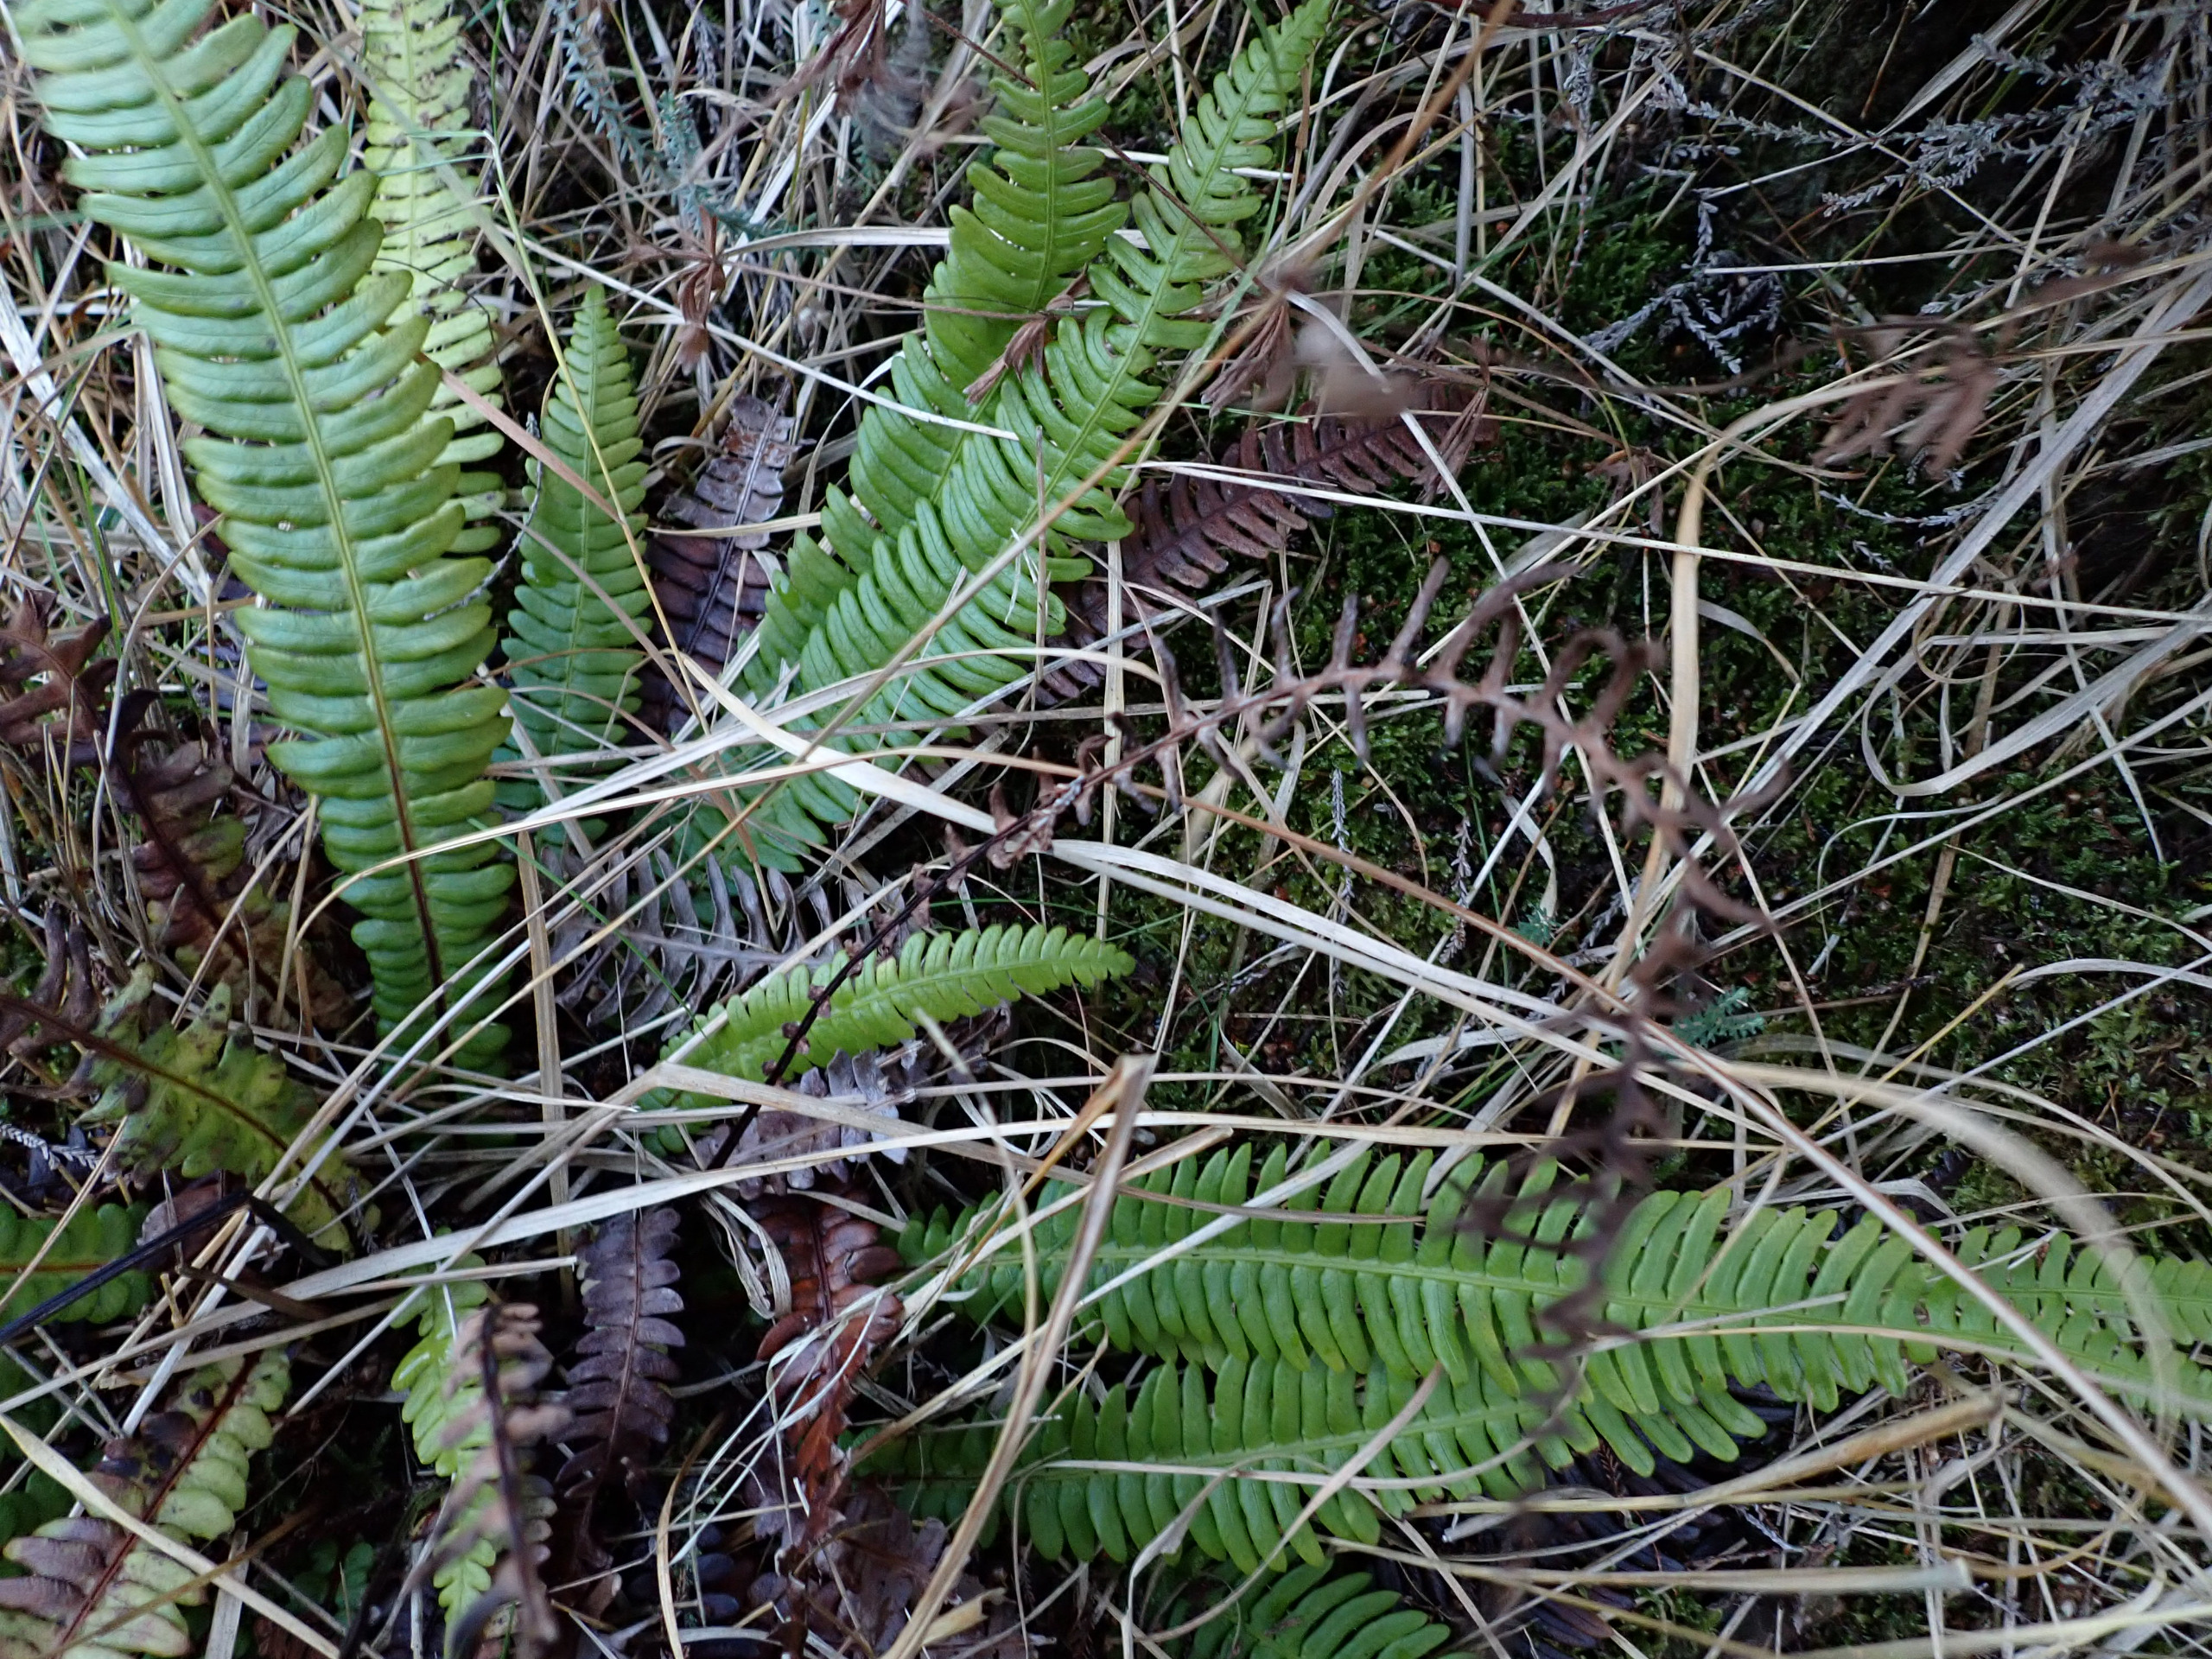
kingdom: Plantae
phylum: Tracheophyta
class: Polypodiopsida
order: Polypodiales
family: Blechnaceae
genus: Struthiopteris
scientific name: Struthiopteris spicant
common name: Kambregne
